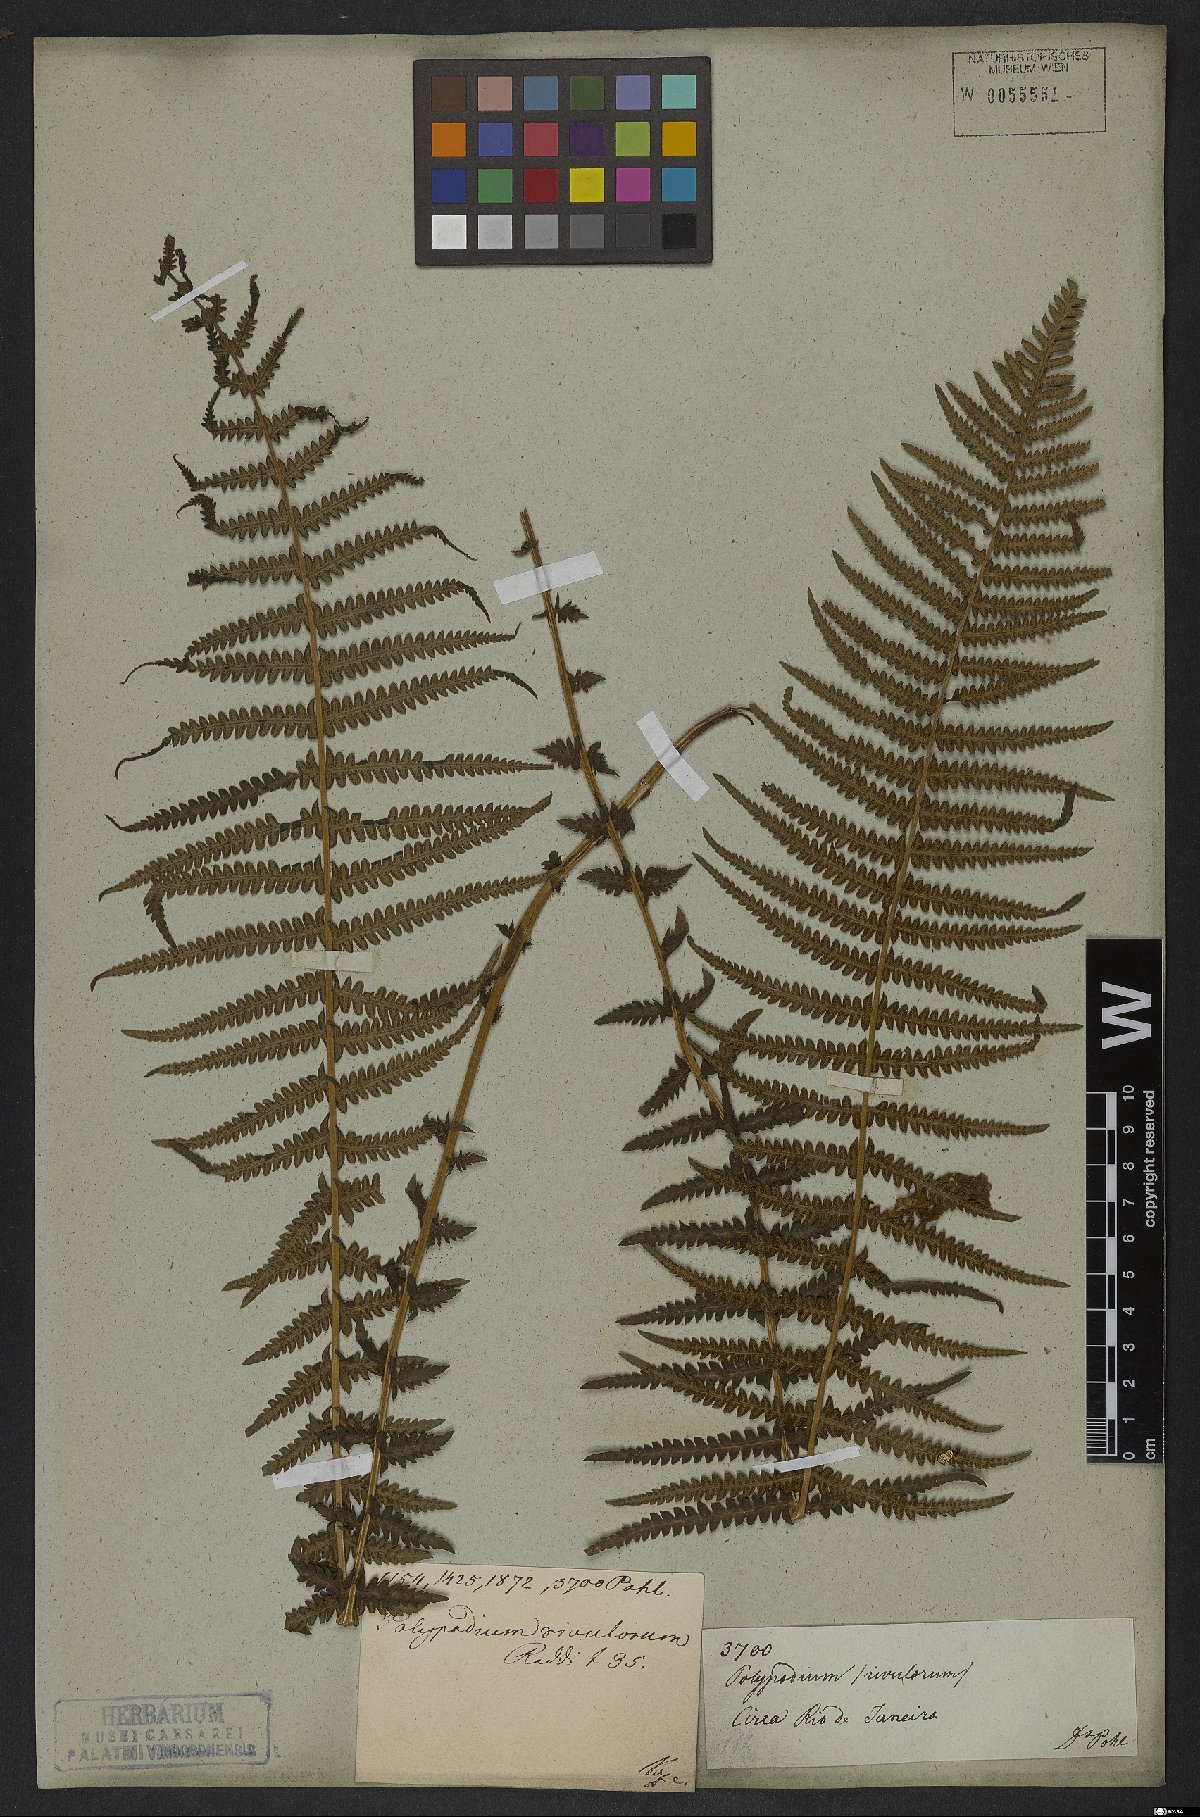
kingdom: Plantae
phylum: Tracheophyta
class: Polypodiopsida
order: Polypodiales
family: Thelypteridaceae
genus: Amauropelta
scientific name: Amauropelta opposita
